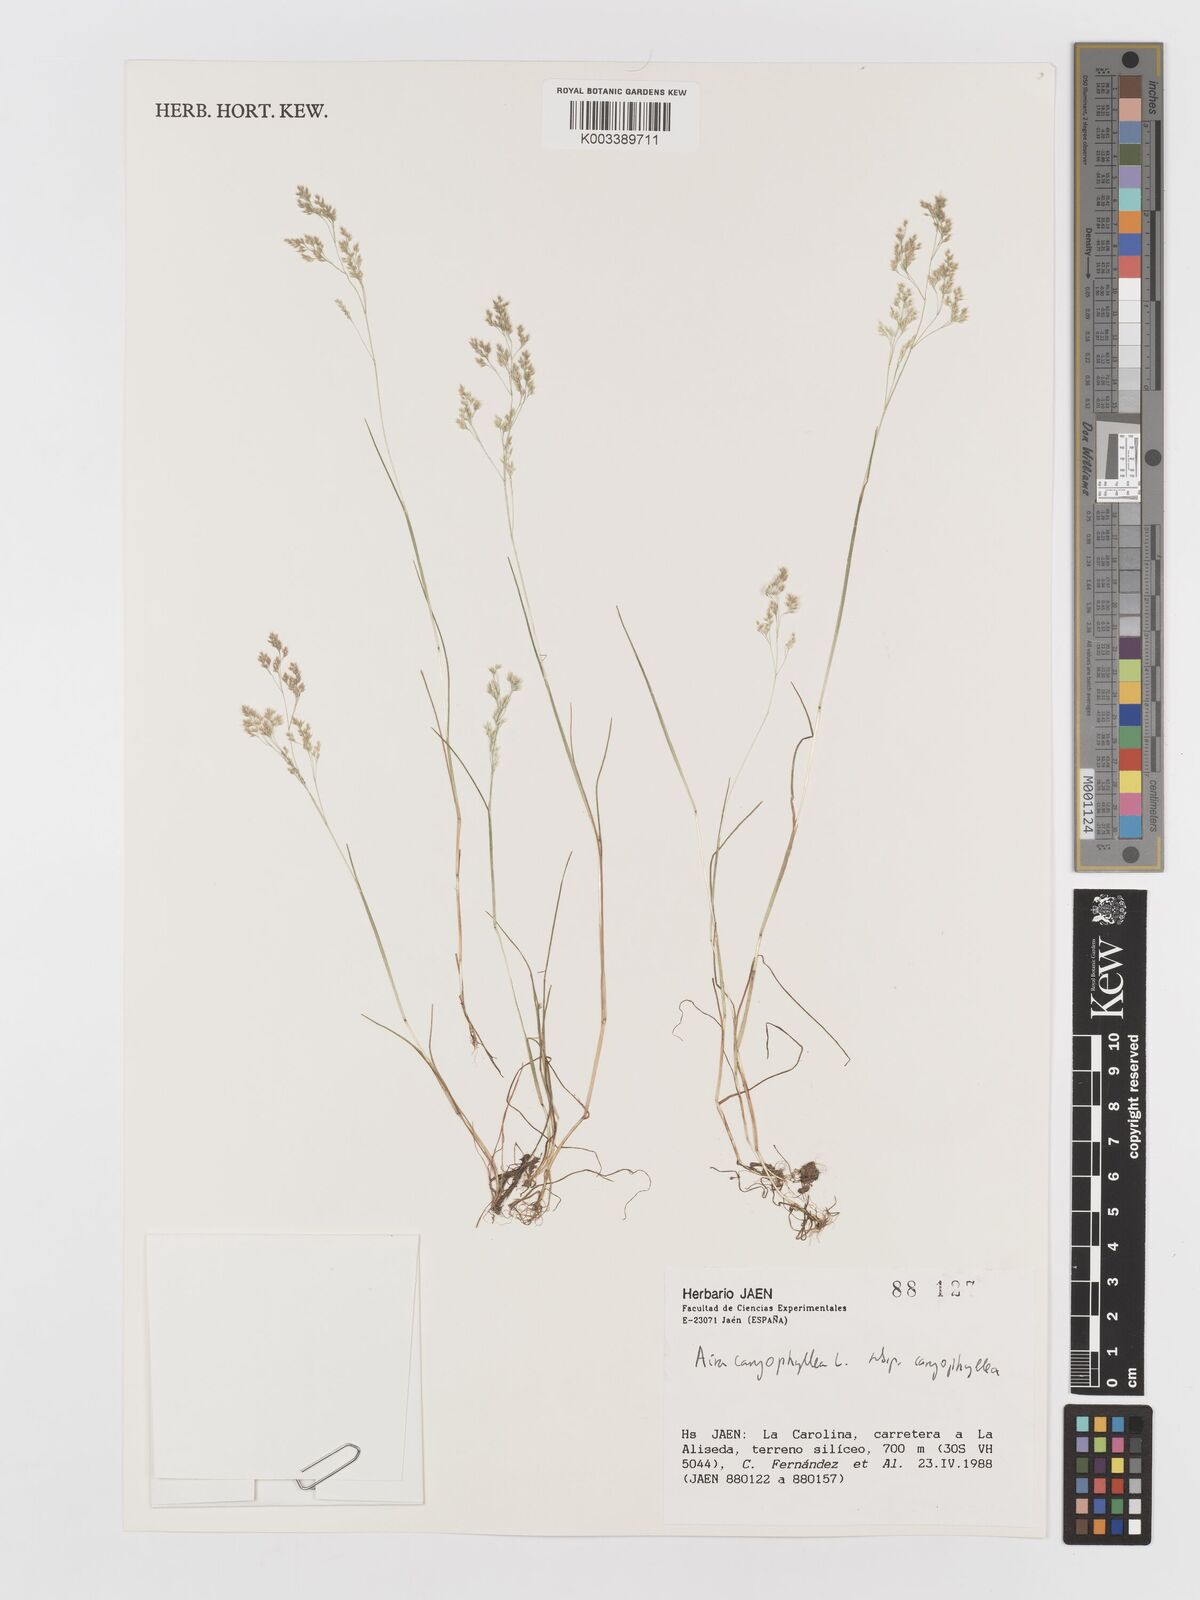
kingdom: Plantae
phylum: Tracheophyta
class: Liliopsida
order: Poales
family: Poaceae
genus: Aira
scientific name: Aira caryophyllea
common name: Silver hairgrass
